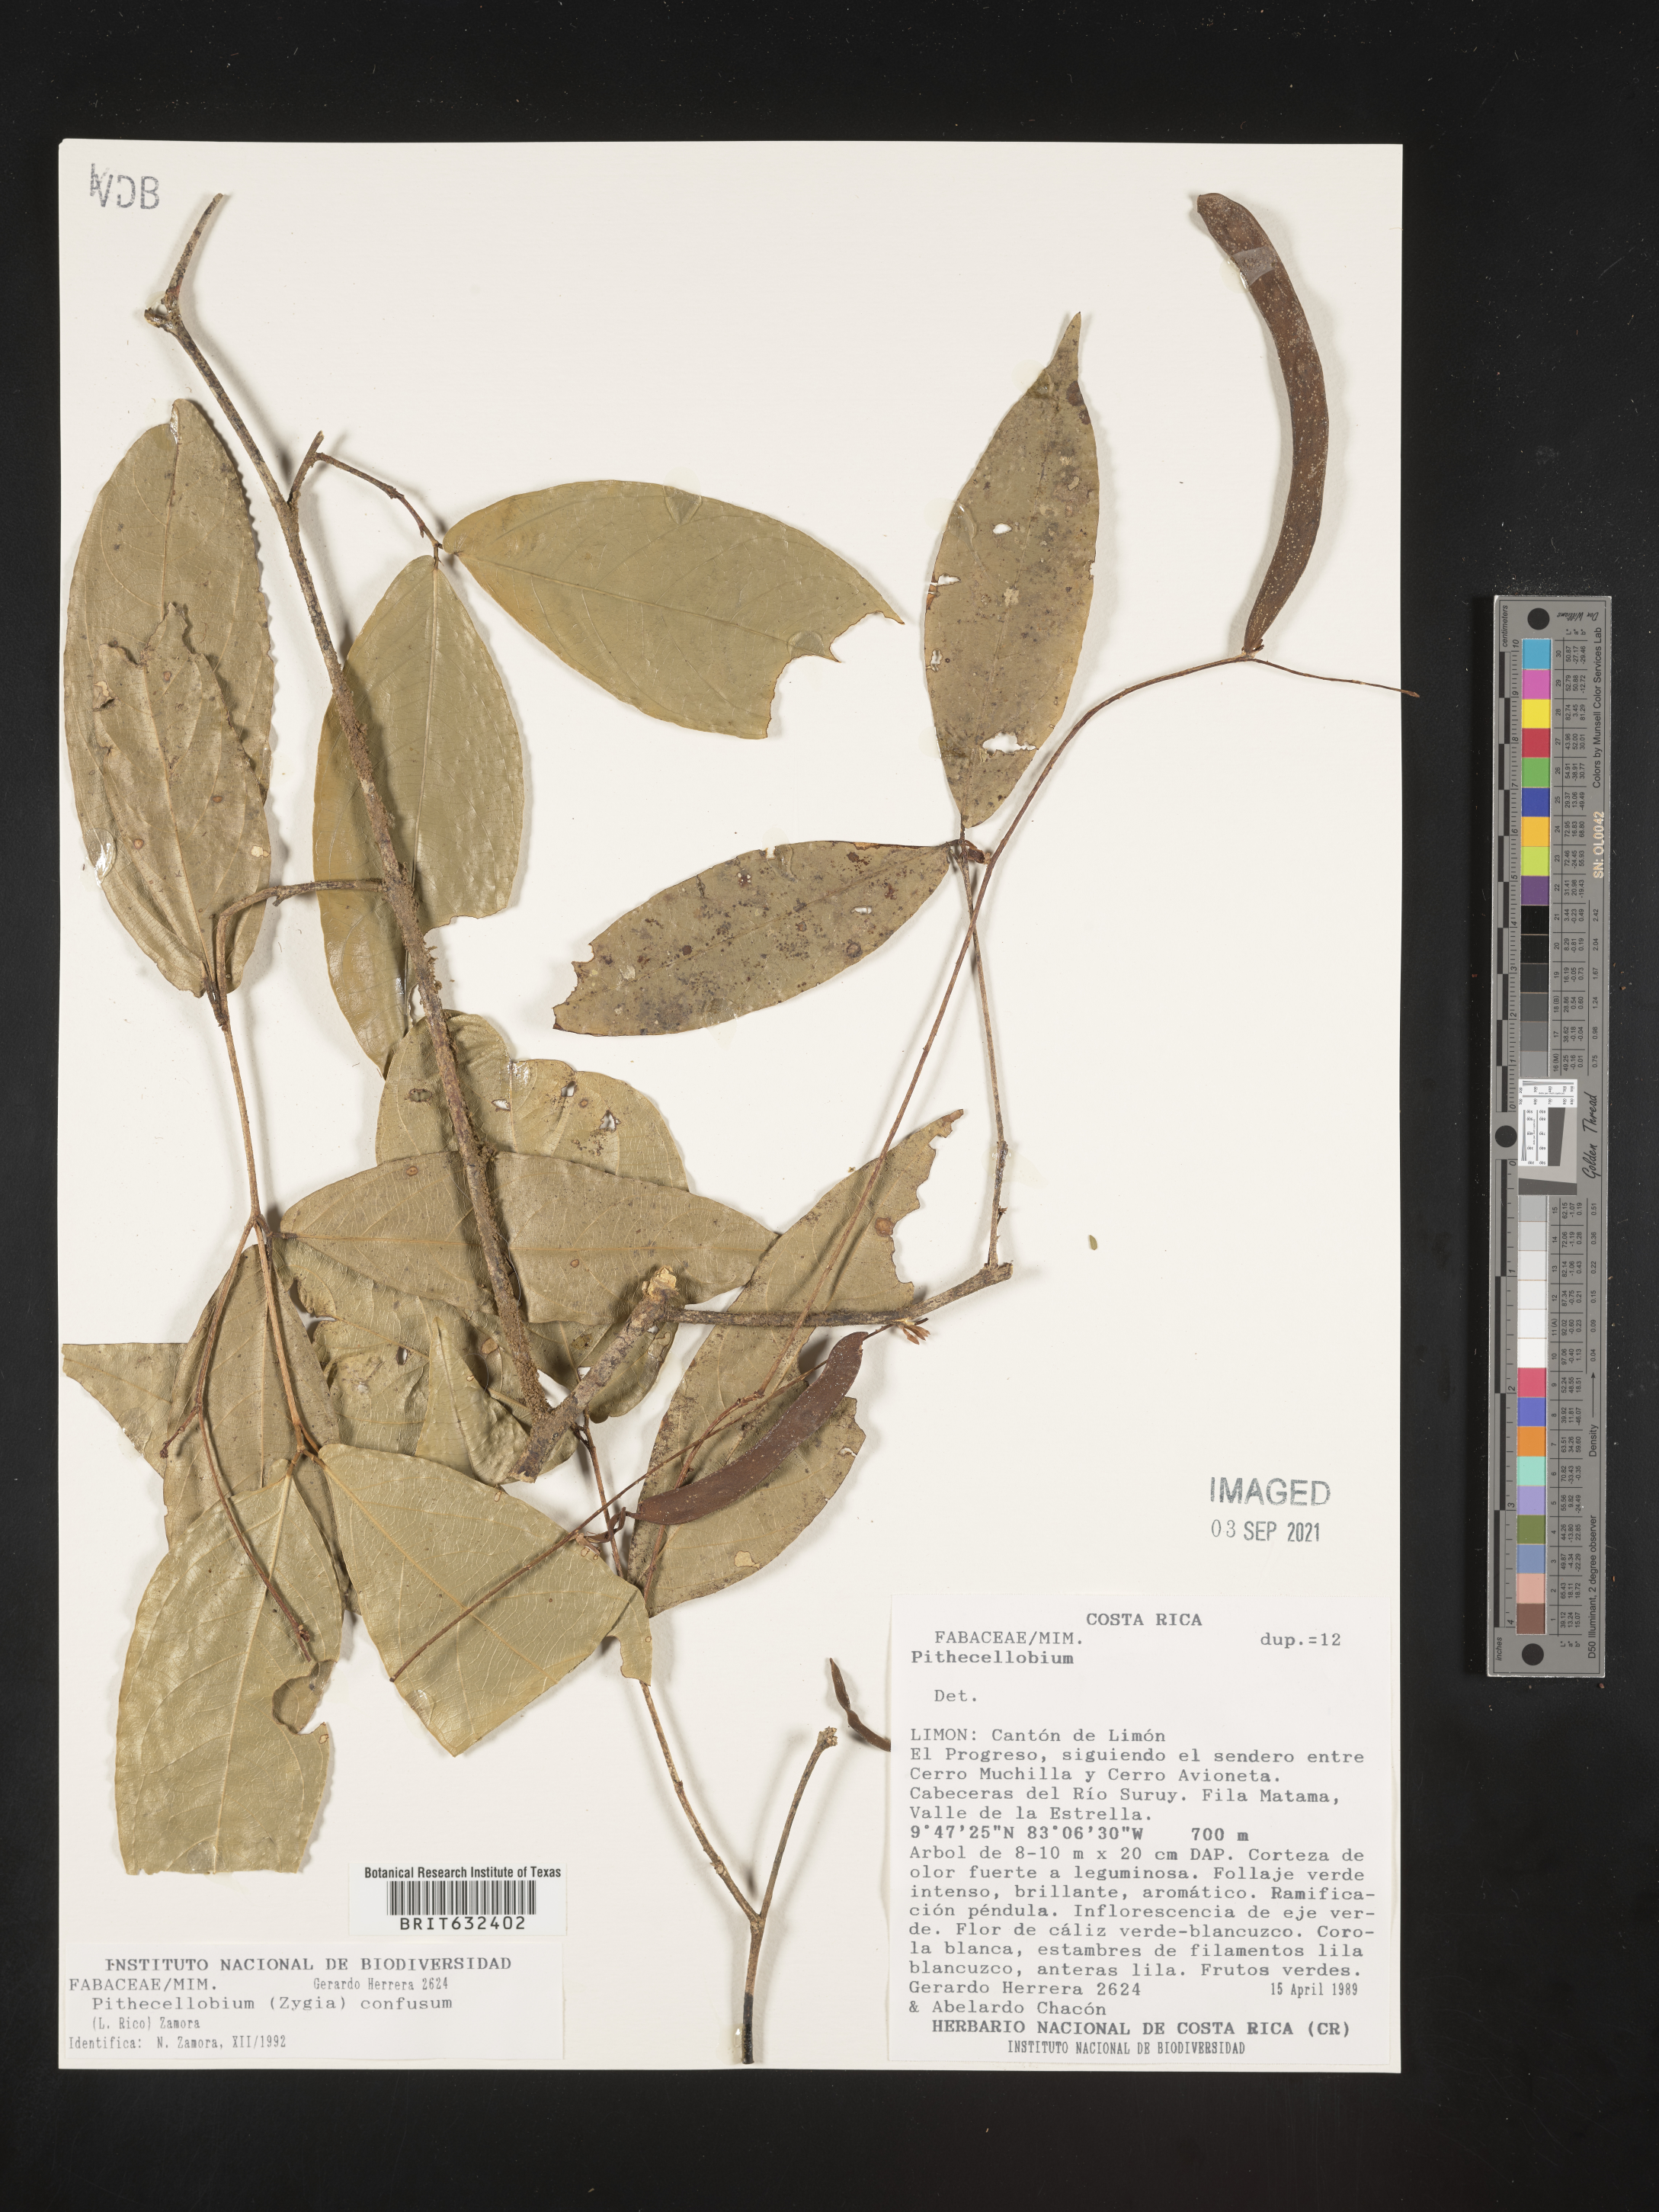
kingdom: Plantae
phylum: Tracheophyta
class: Magnoliopsida
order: Fabales
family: Fabaceae
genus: Pithecellobium
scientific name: Pithecellobium
